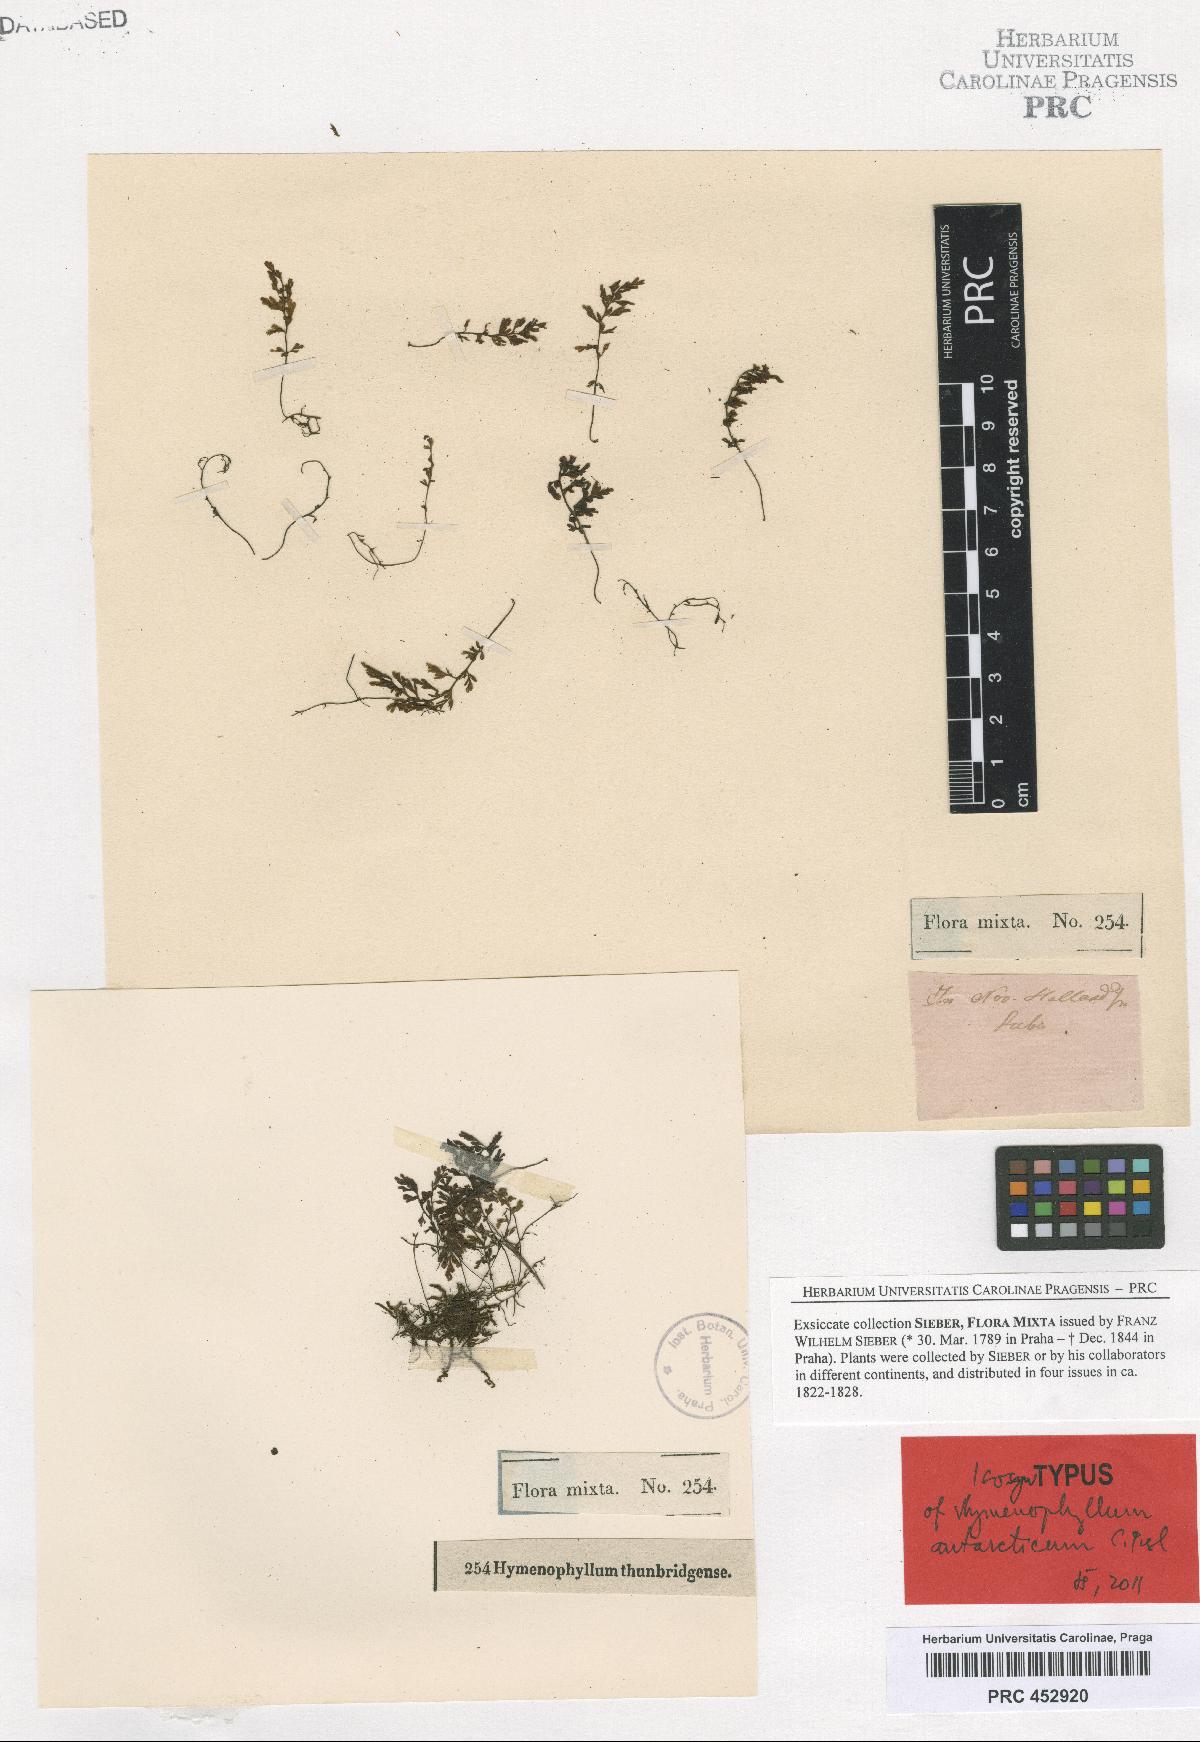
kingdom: Plantae
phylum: Tracheophyta
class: Polypodiopsida
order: Hymenophyllales
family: Hymenophyllaceae
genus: Hymenophyllum
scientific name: Hymenophyllum cupressiforme
